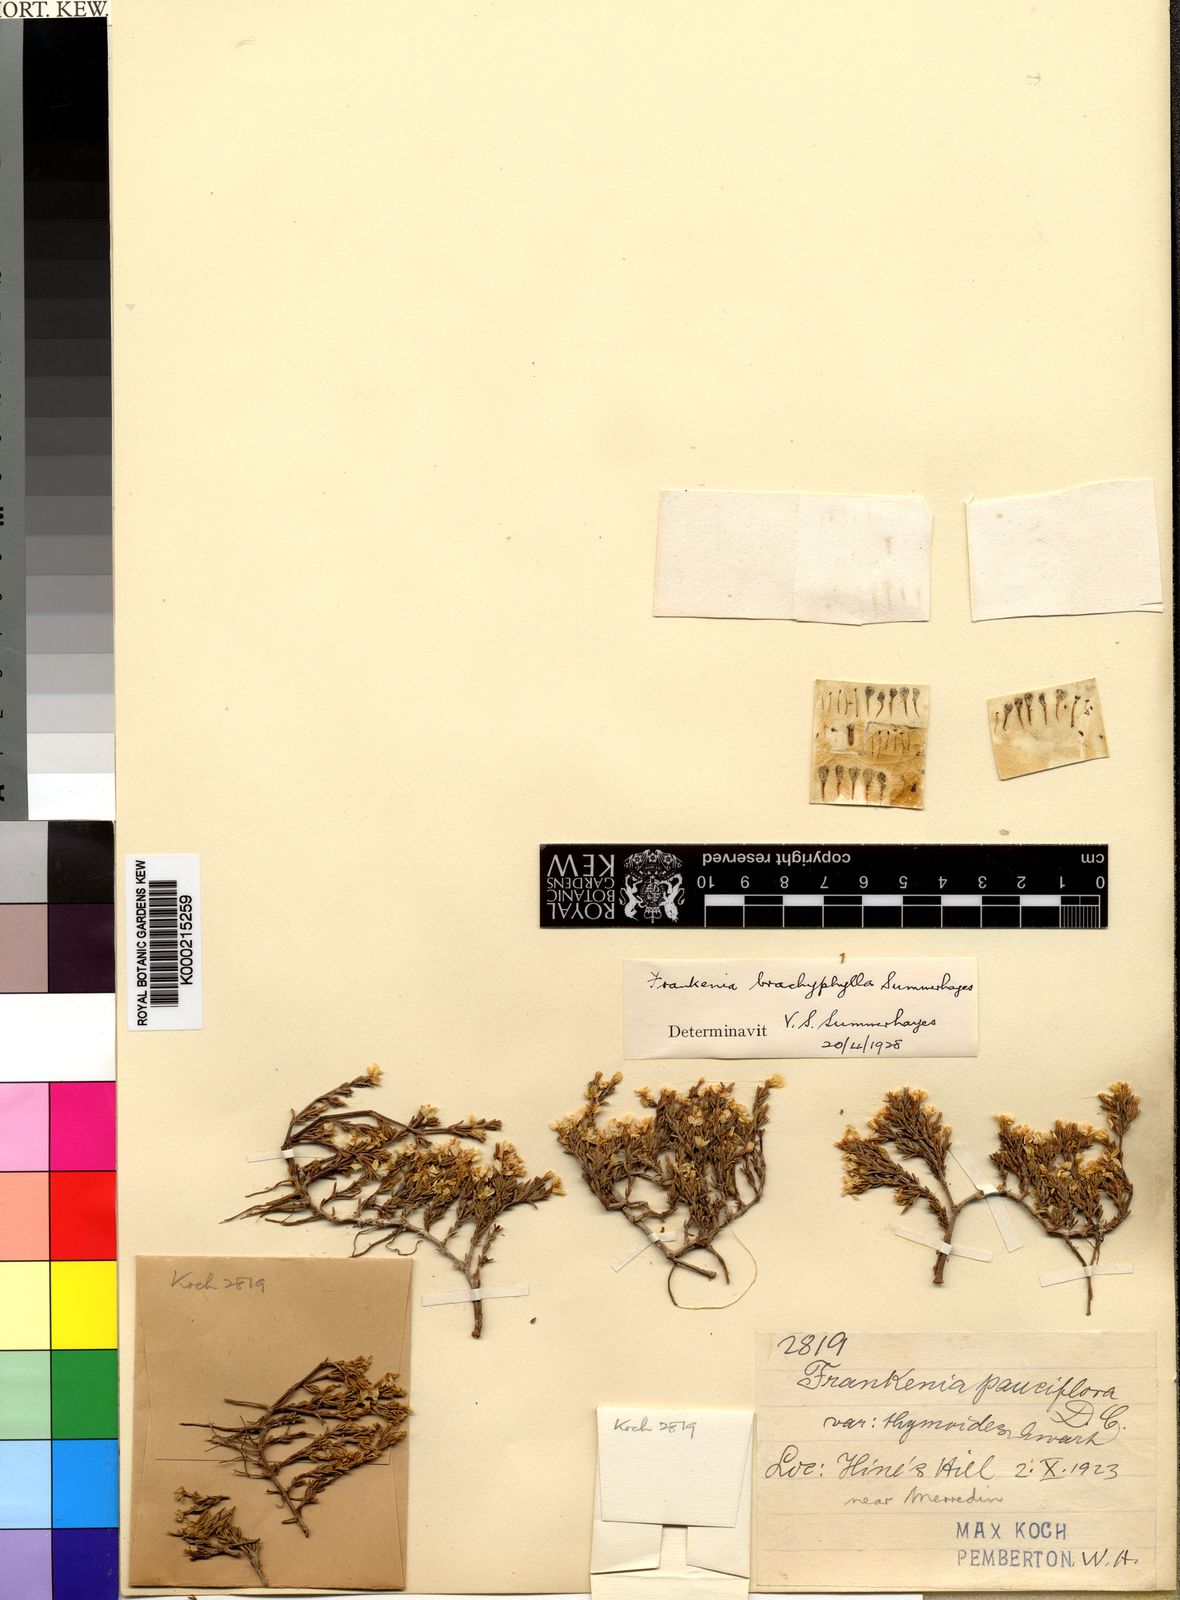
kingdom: Plantae
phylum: Tracheophyta
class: Magnoliopsida
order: Caryophyllales
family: Frankeniaceae
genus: Frankenia
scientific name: Frankenia brachyphylla
